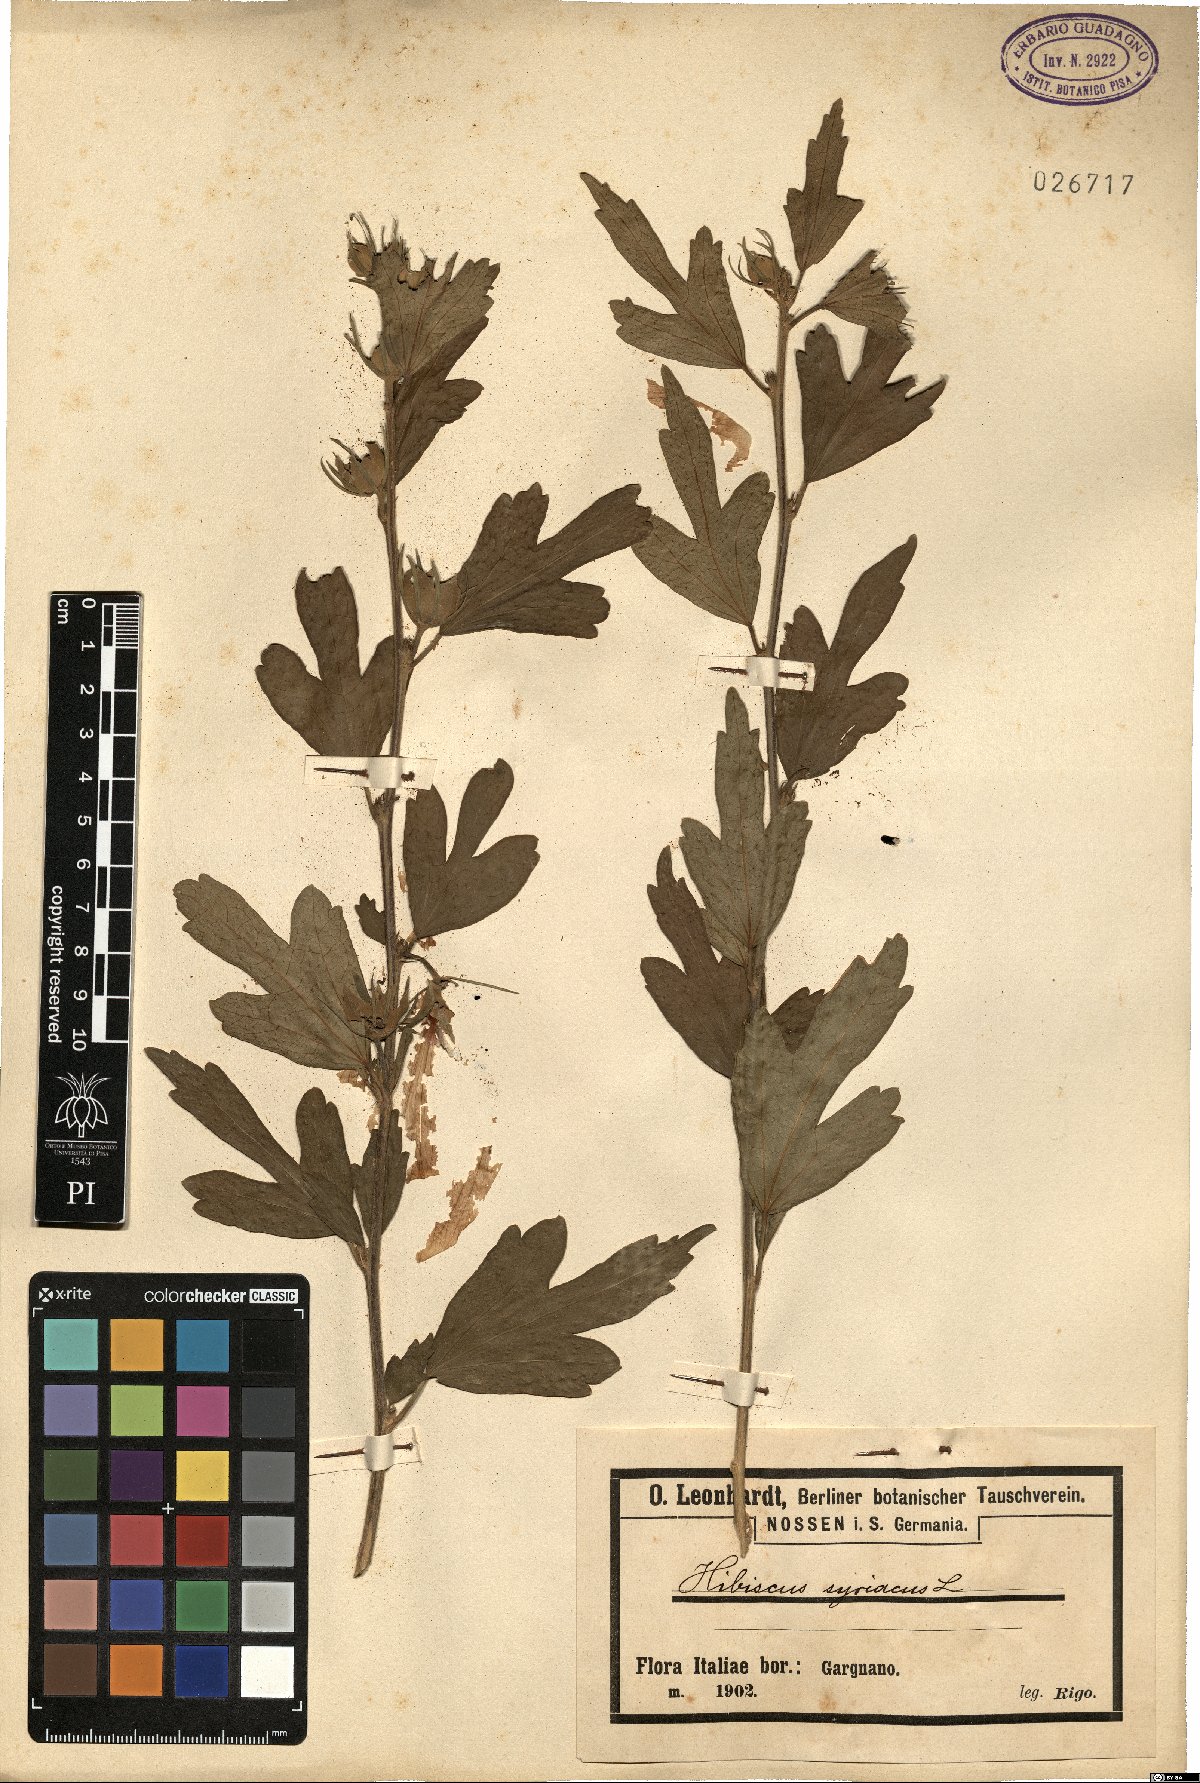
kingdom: Plantae
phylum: Tracheophyta
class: Magnoliopsida
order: Malvales
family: Malvaceae
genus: Hibiscus
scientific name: Hibiscus syriacus
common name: Syrian ketmia
